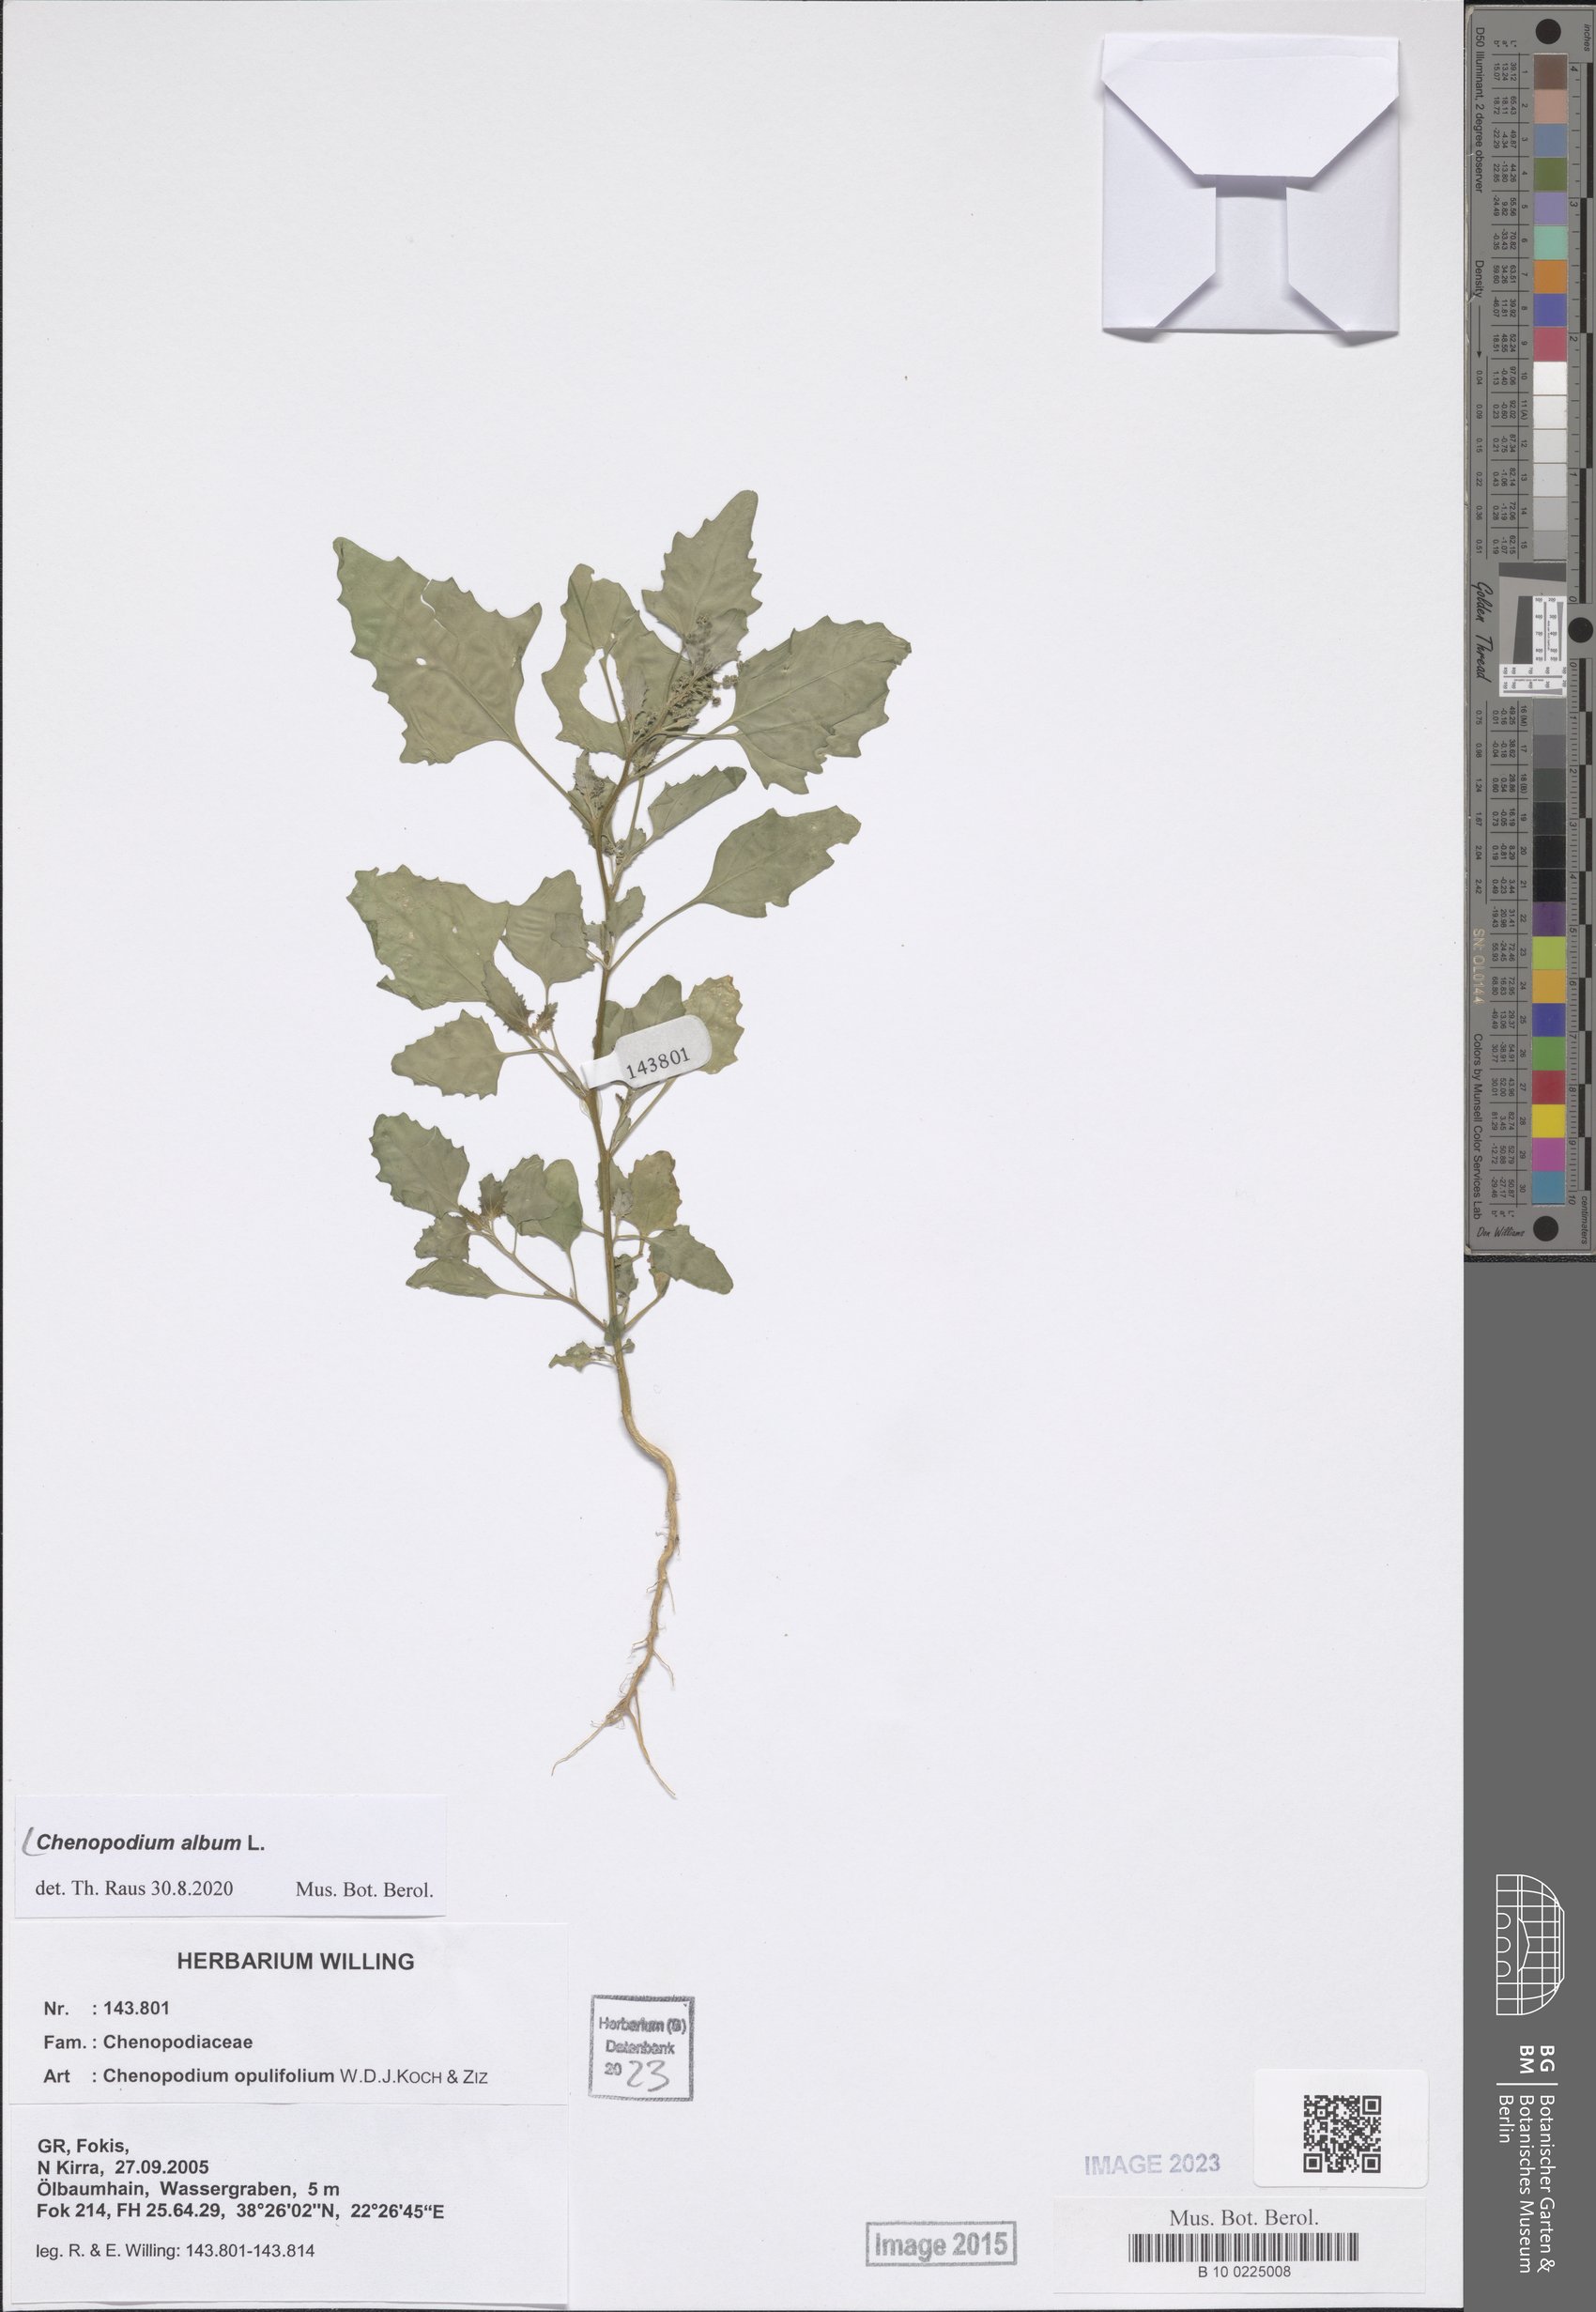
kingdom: Plantae
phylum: Tracheophyta
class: Magnoliopsida
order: Caryophyllales
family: Amaranthaceae
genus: Chenopodium
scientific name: Chenopodium album
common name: Fat-hen
